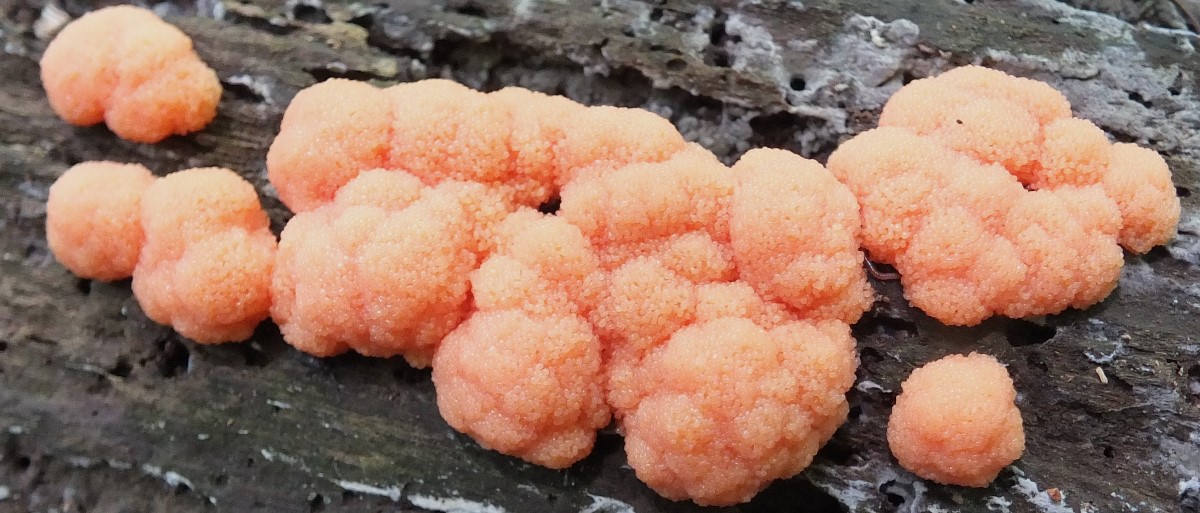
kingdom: Protozoa
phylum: Mycetozoa
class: Myxomycetes
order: Cribrariales
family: Tubiferaceae
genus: Tubifera
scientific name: Tubifera ferruginosa
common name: kanel-støvrør
